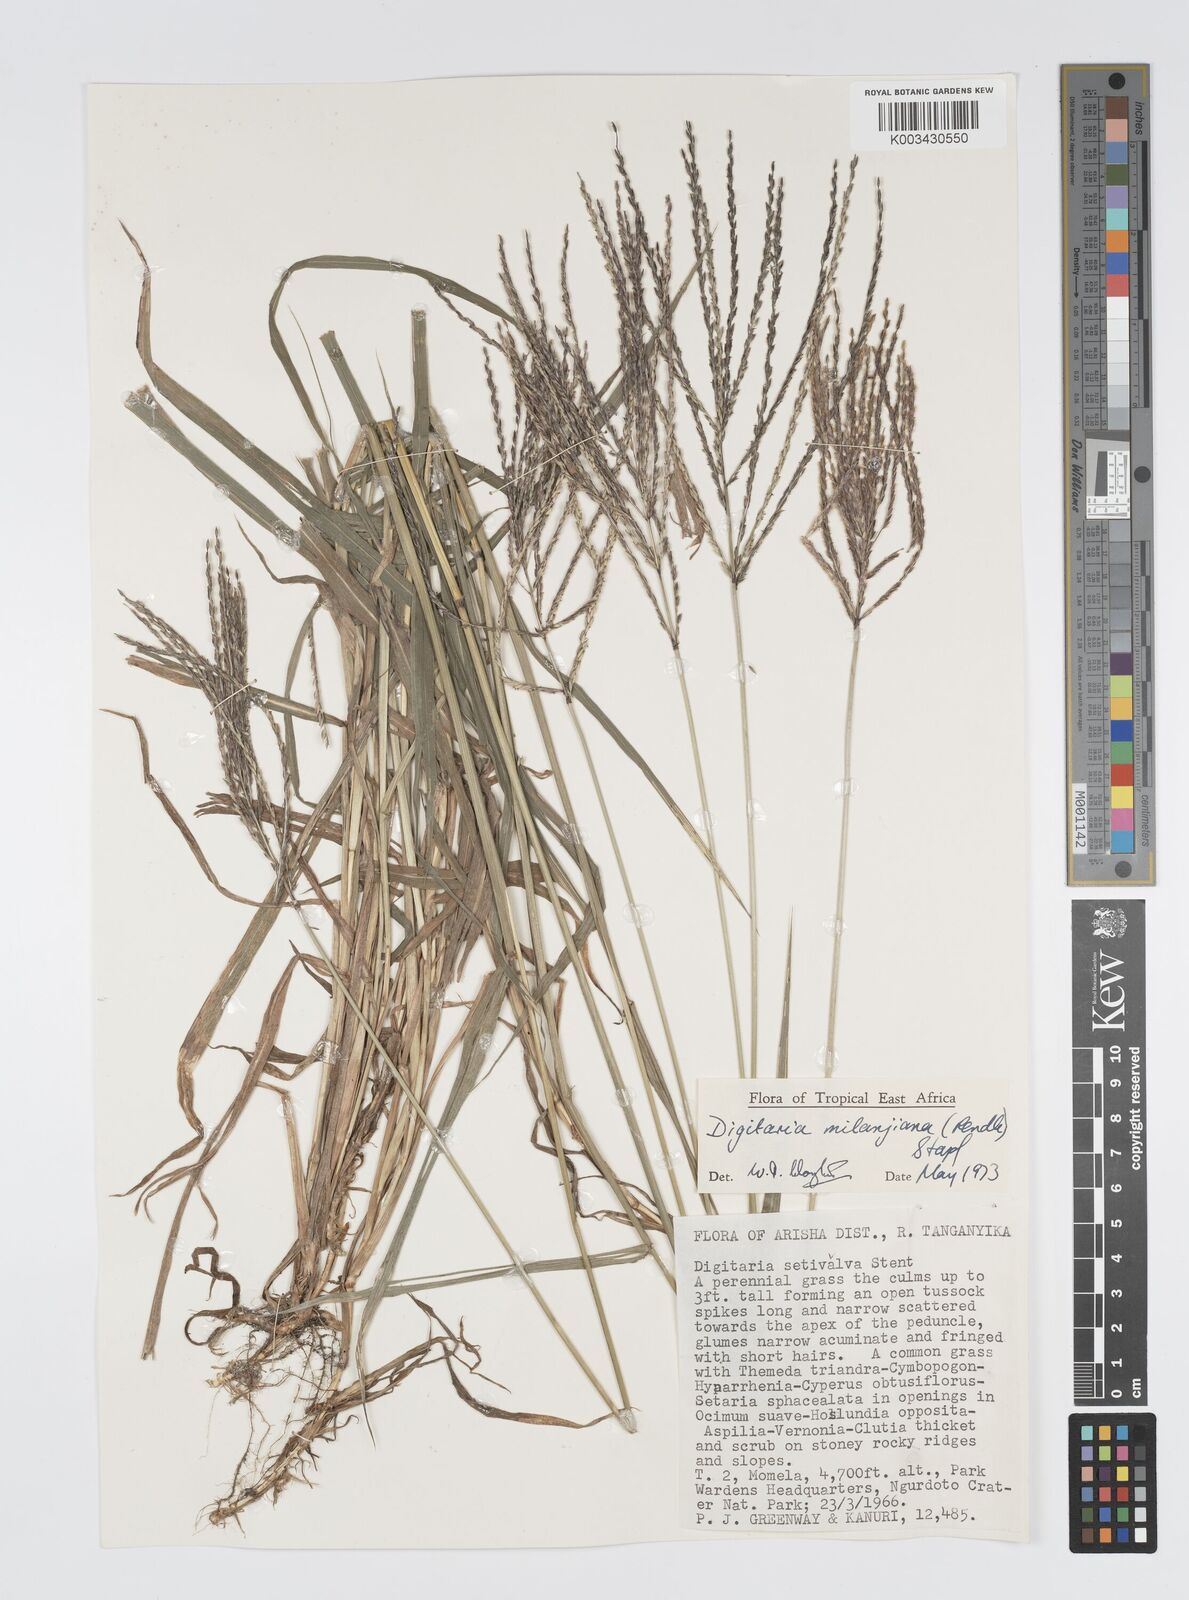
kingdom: Plantae
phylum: Tracheophyta
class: Liliopsida
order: Poales
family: Poaceae
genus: Digitaria
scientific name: Digitaria milanjiana
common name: Madagascar crabgrass
